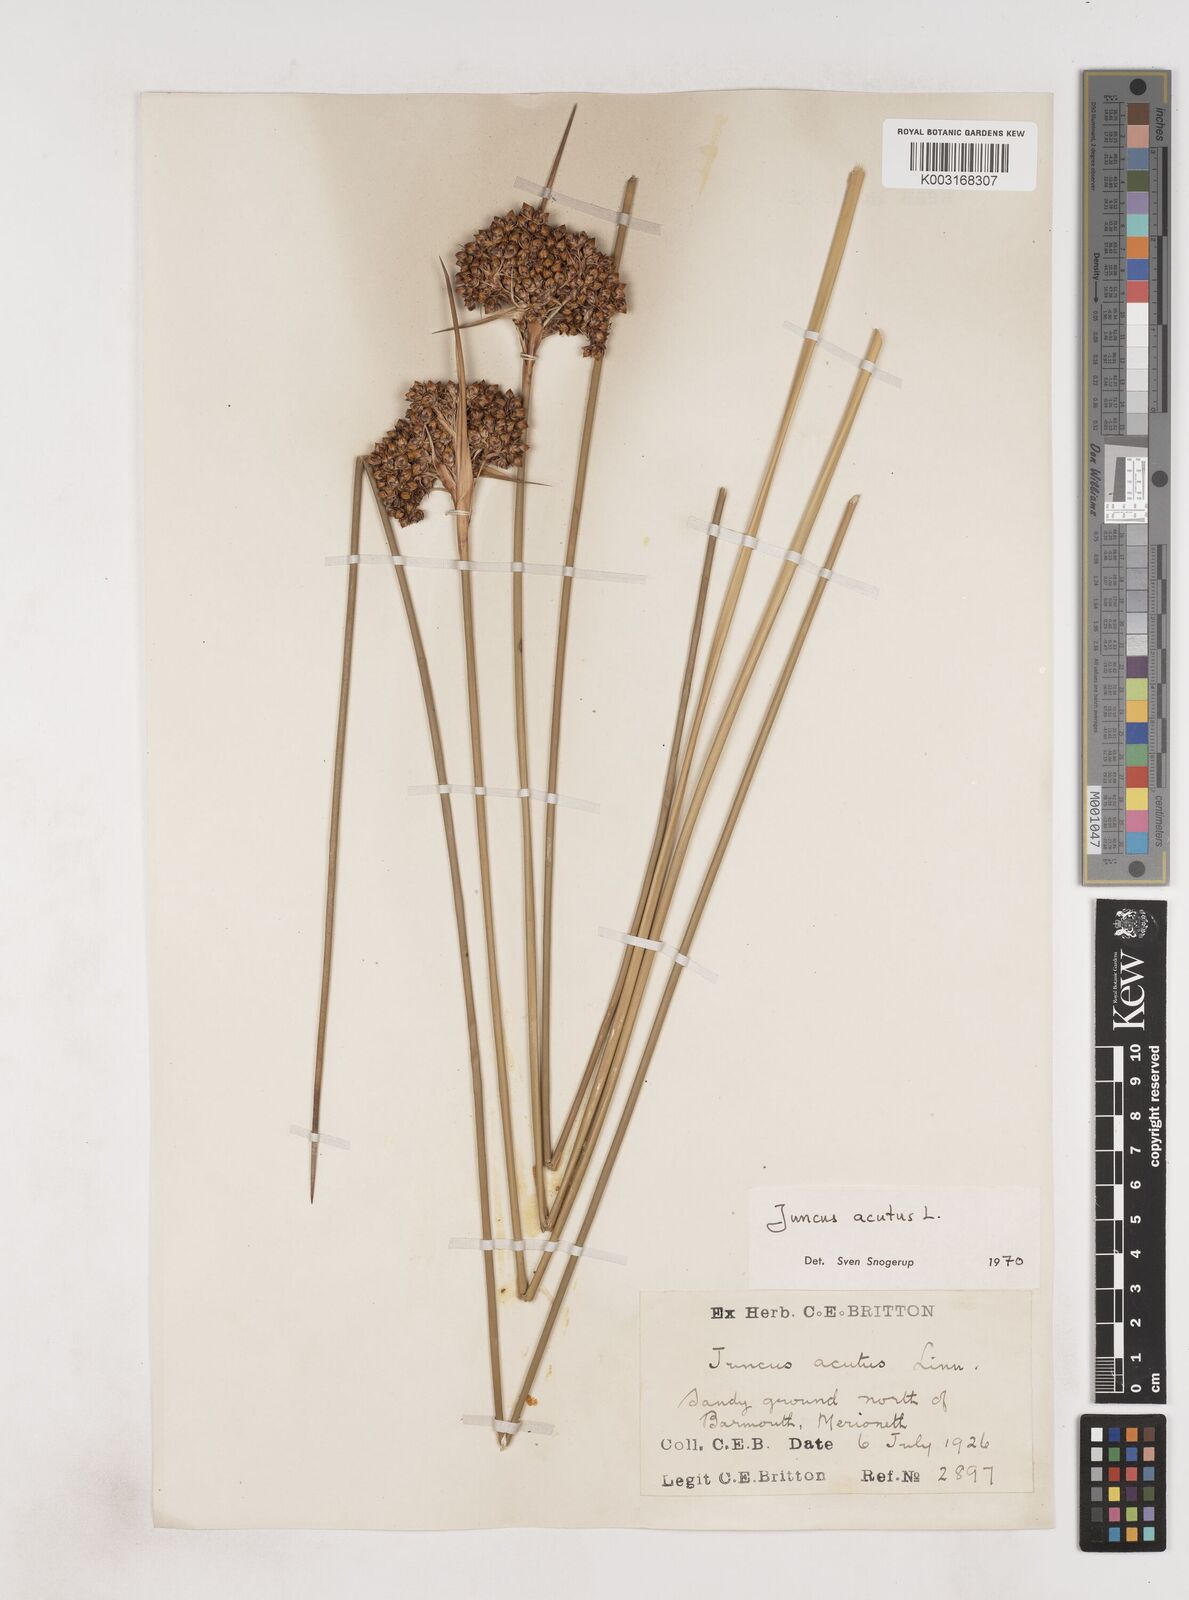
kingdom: Plantae
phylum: Tracheophyta
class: Liliopsida
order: Poales
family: Juncaceae
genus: Juncus
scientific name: Juncus acutus
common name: Sharp rush
